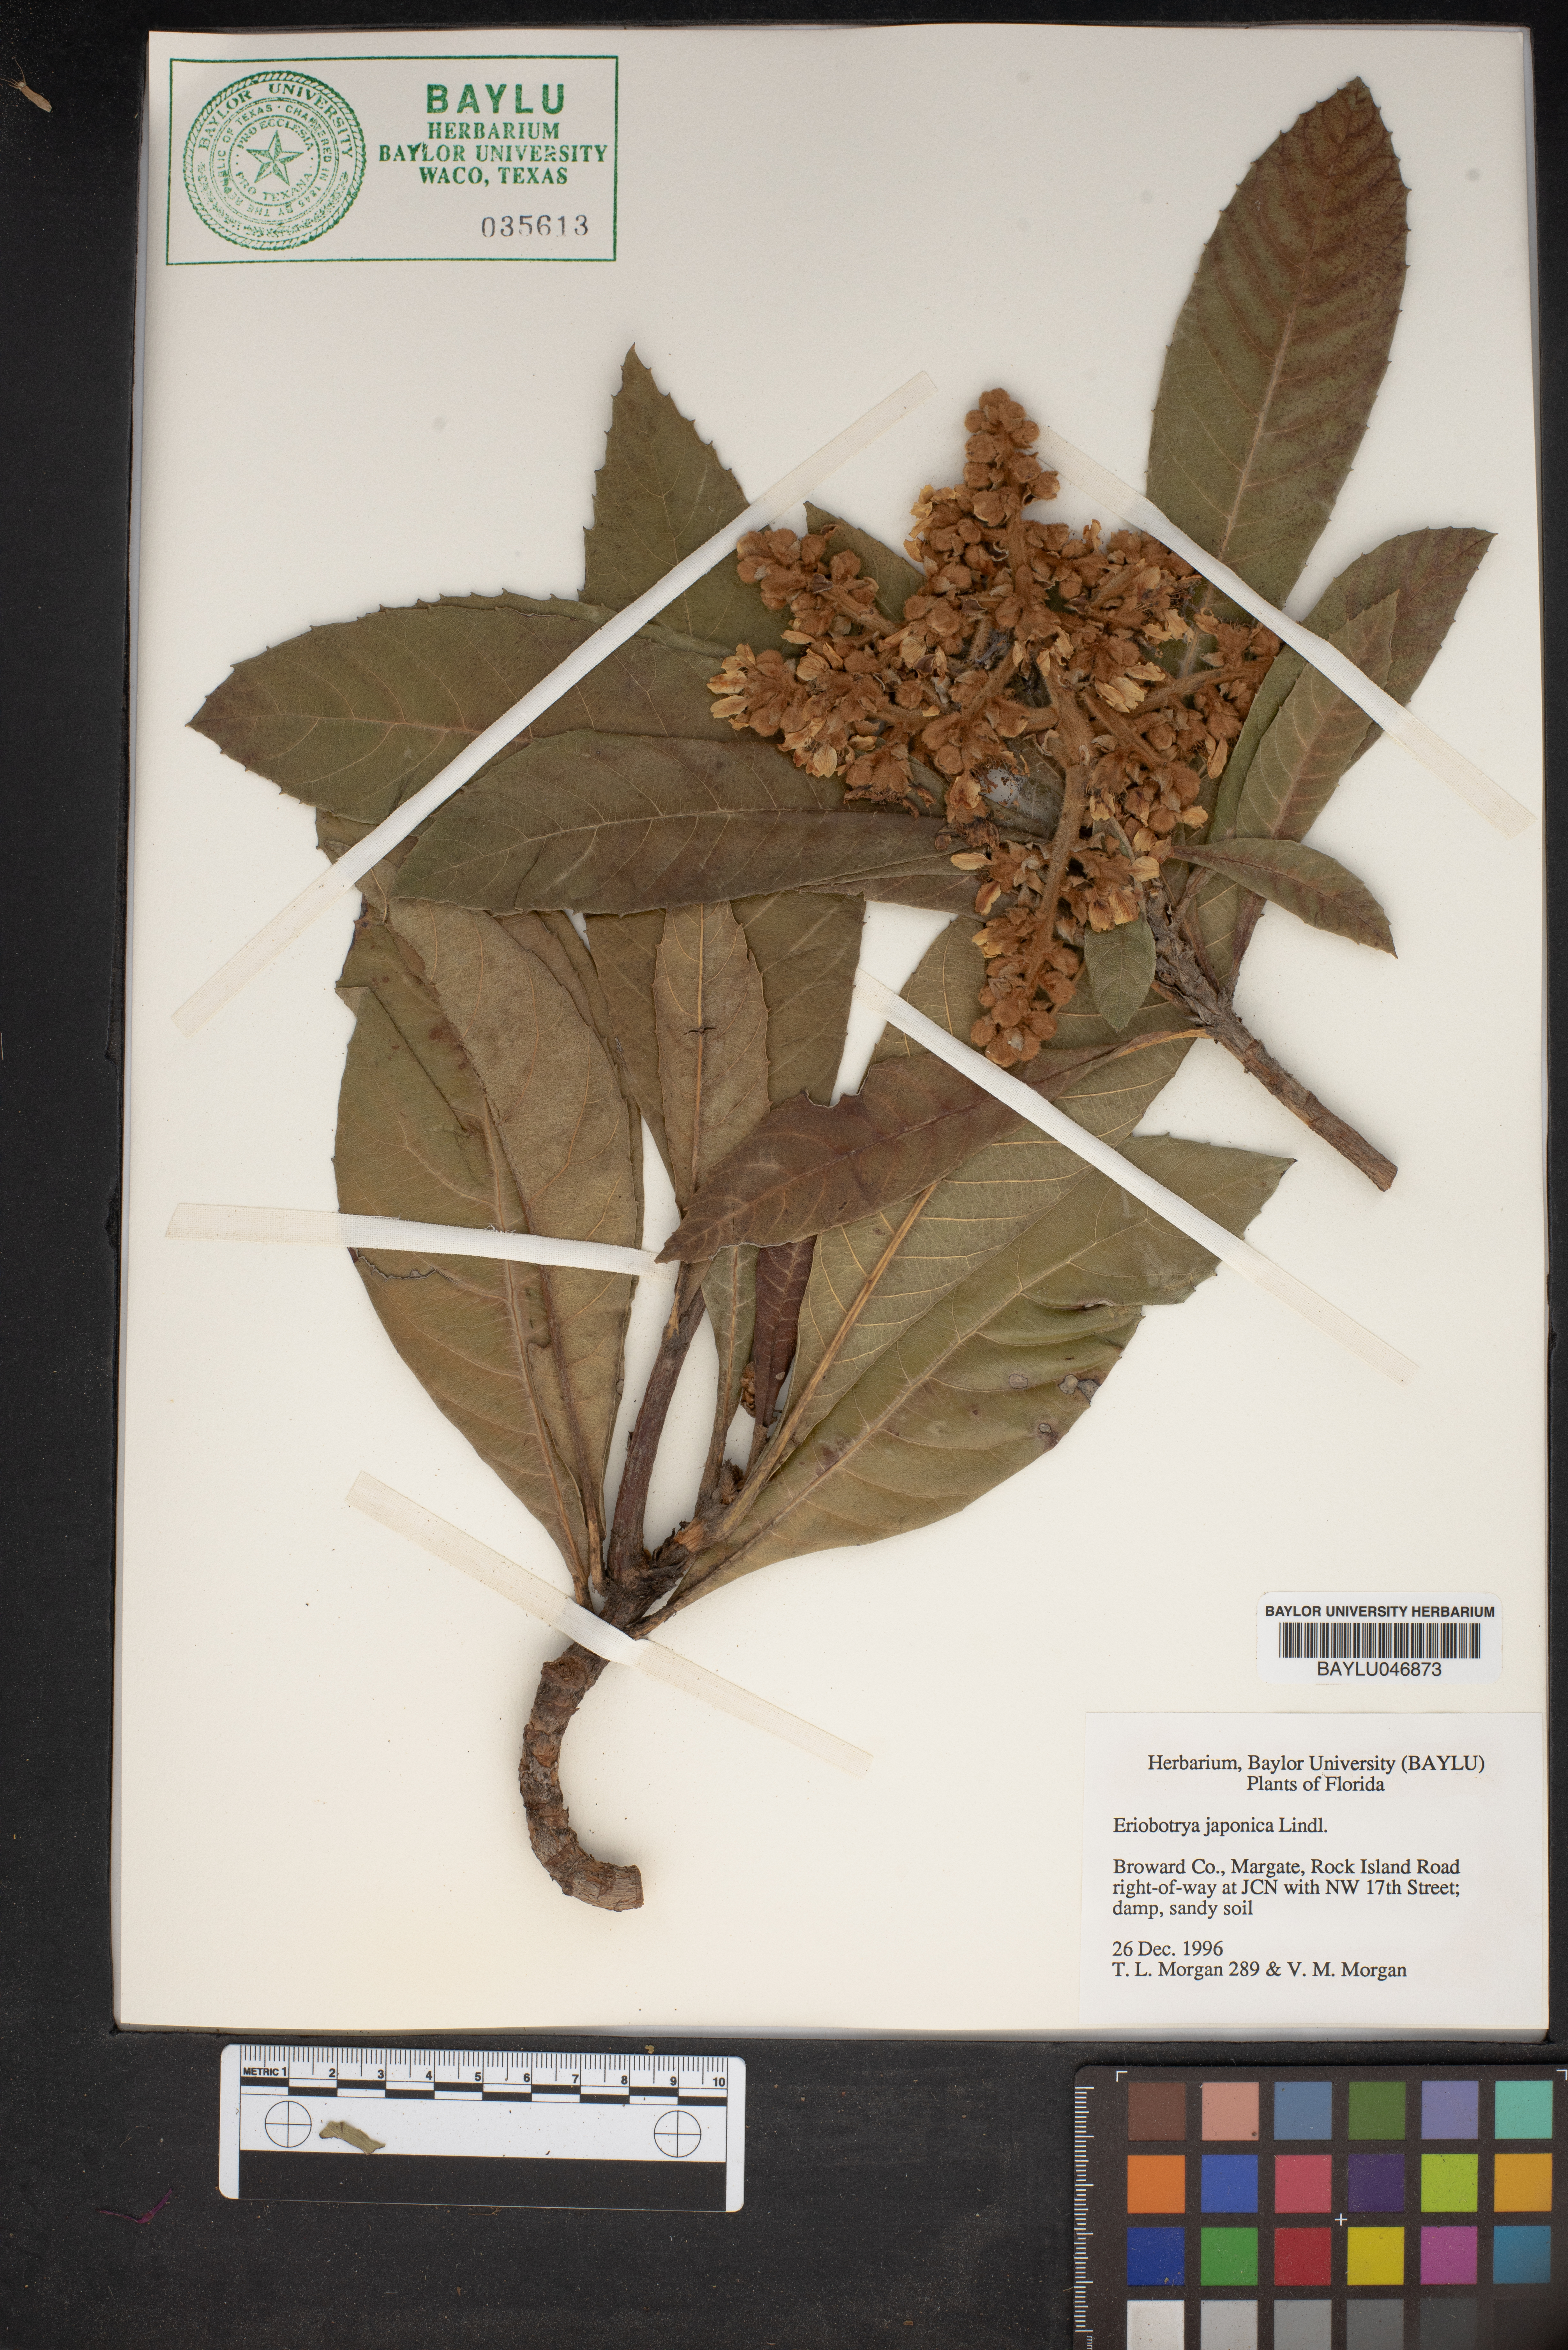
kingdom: Plantae
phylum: Tracheophyta
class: Magnoliopsida
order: Rosales
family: Rosaceae
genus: Rhaphiolepis
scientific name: Rhaphiolepis bibas
